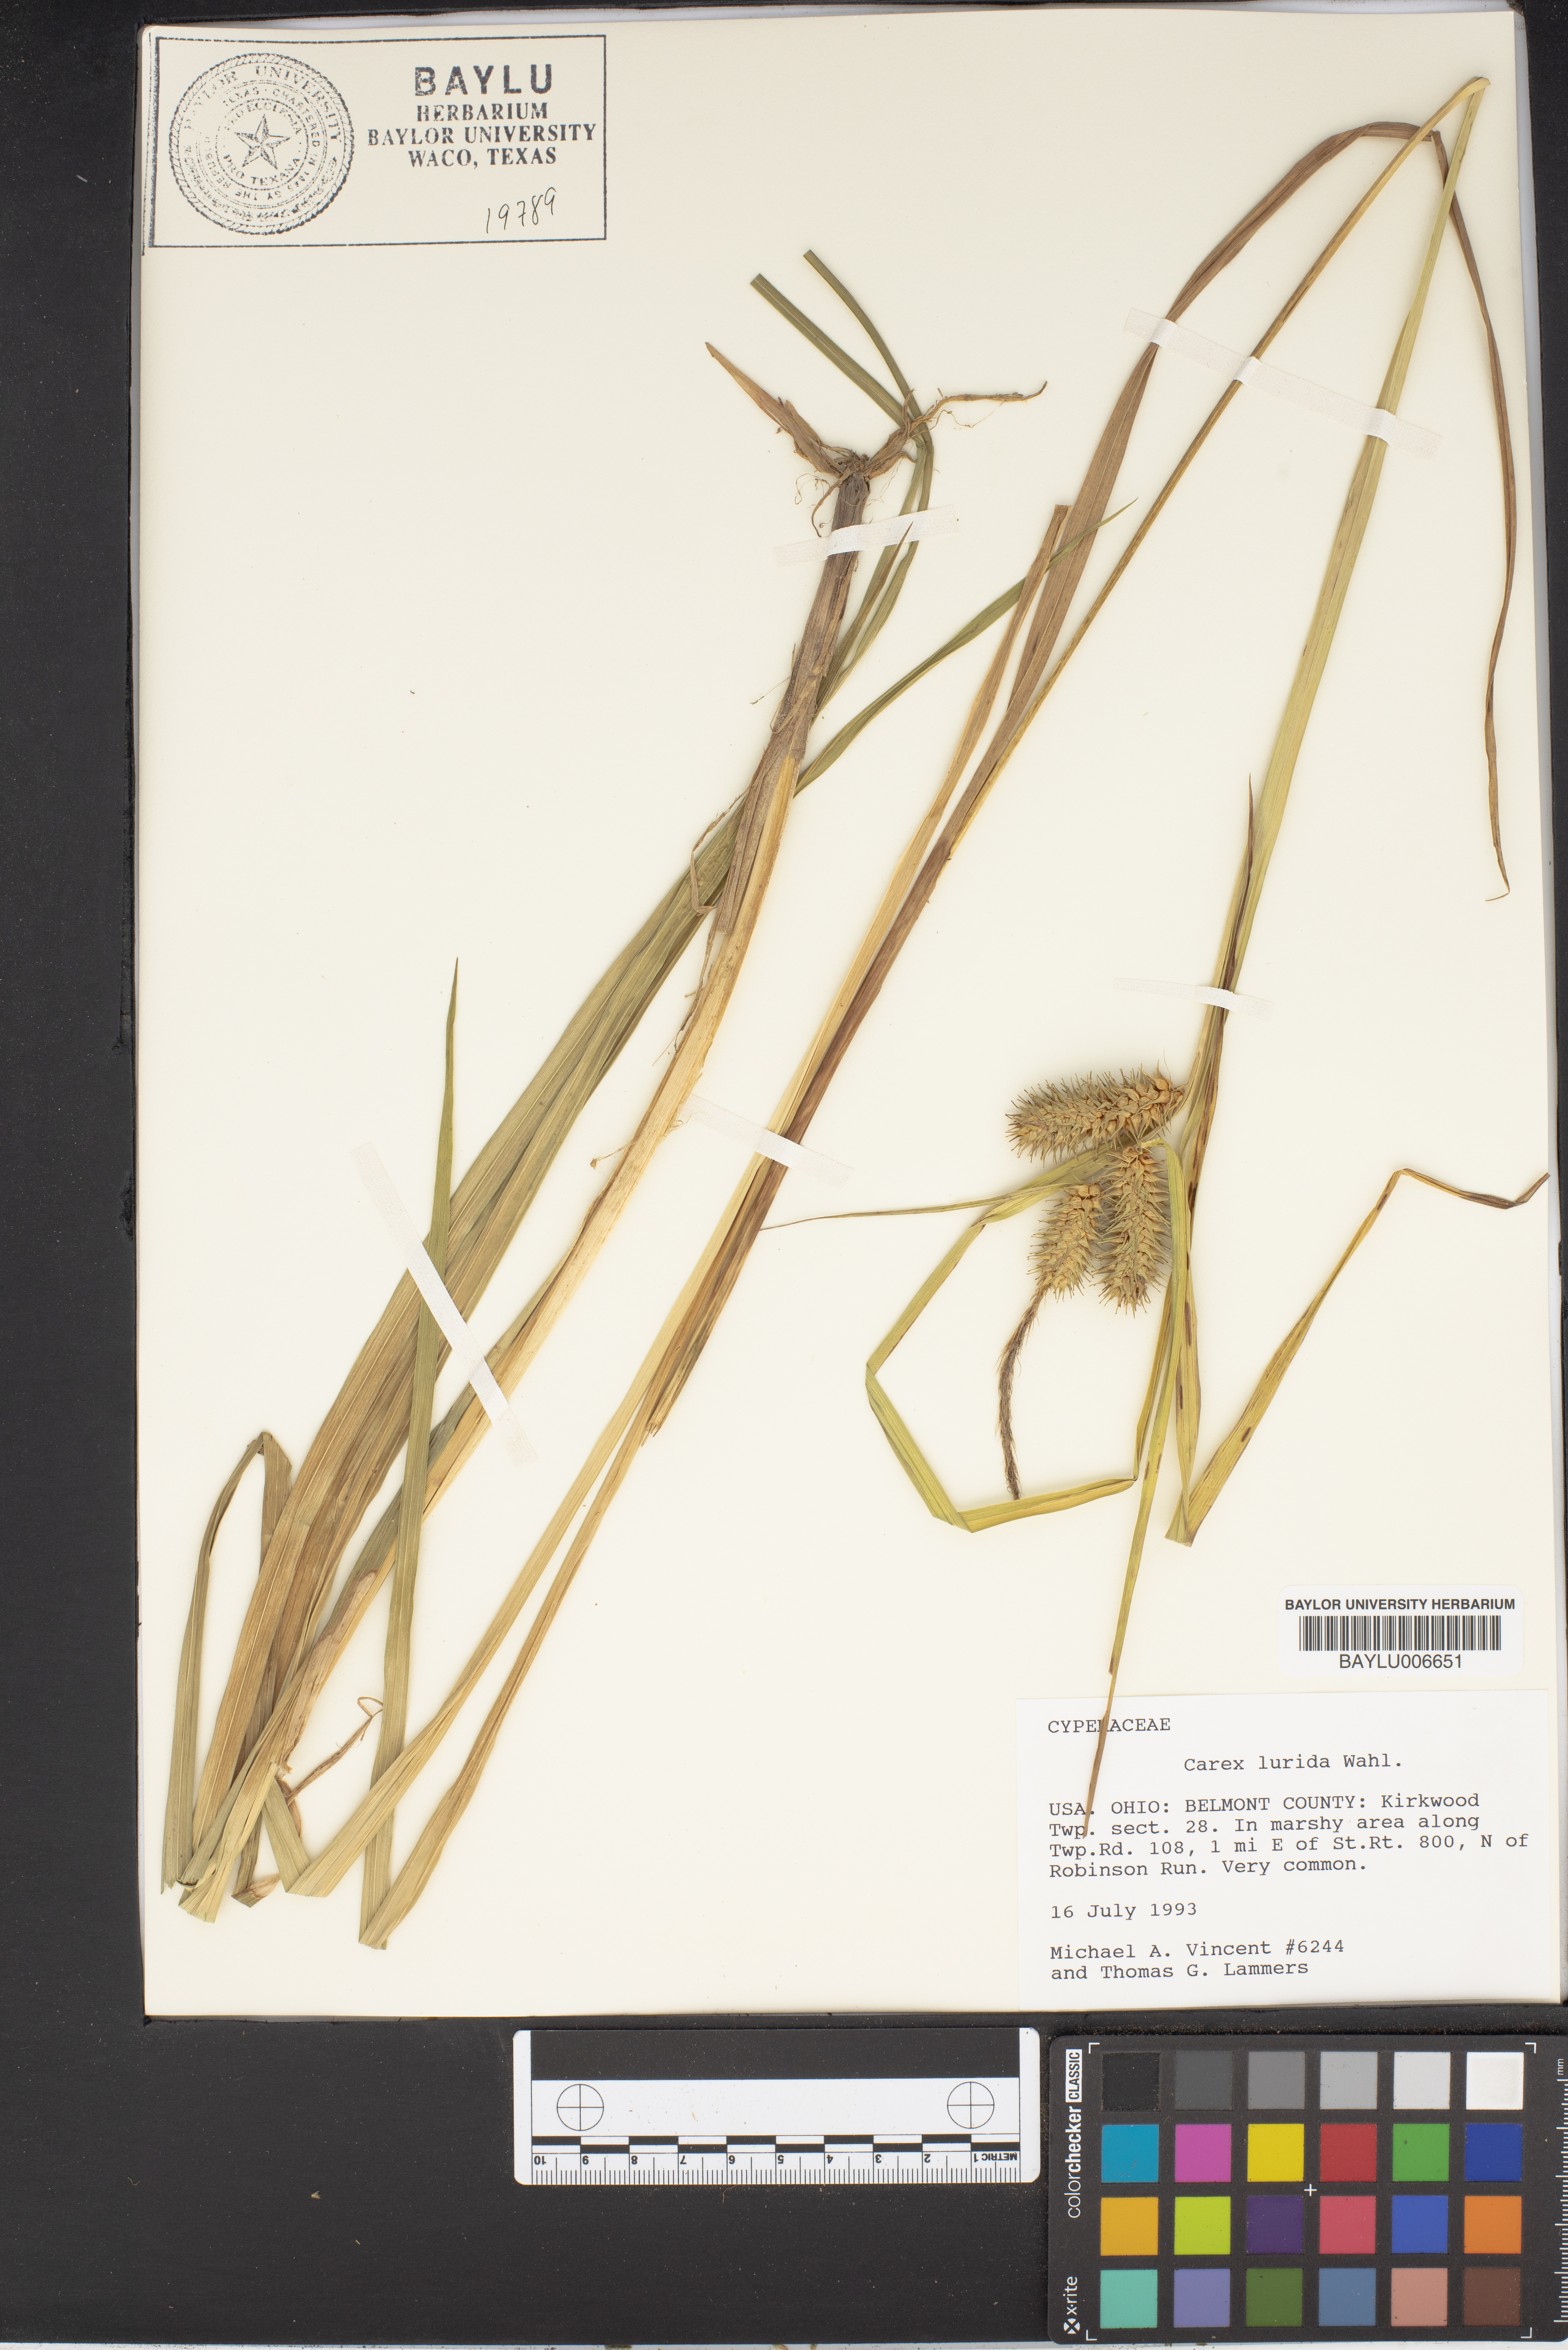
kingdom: Plantae
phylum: Tracheophyta
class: Liliopsida
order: Poales
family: Cyperaceae
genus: Carex
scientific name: Carex lurida
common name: Sallow sedge
